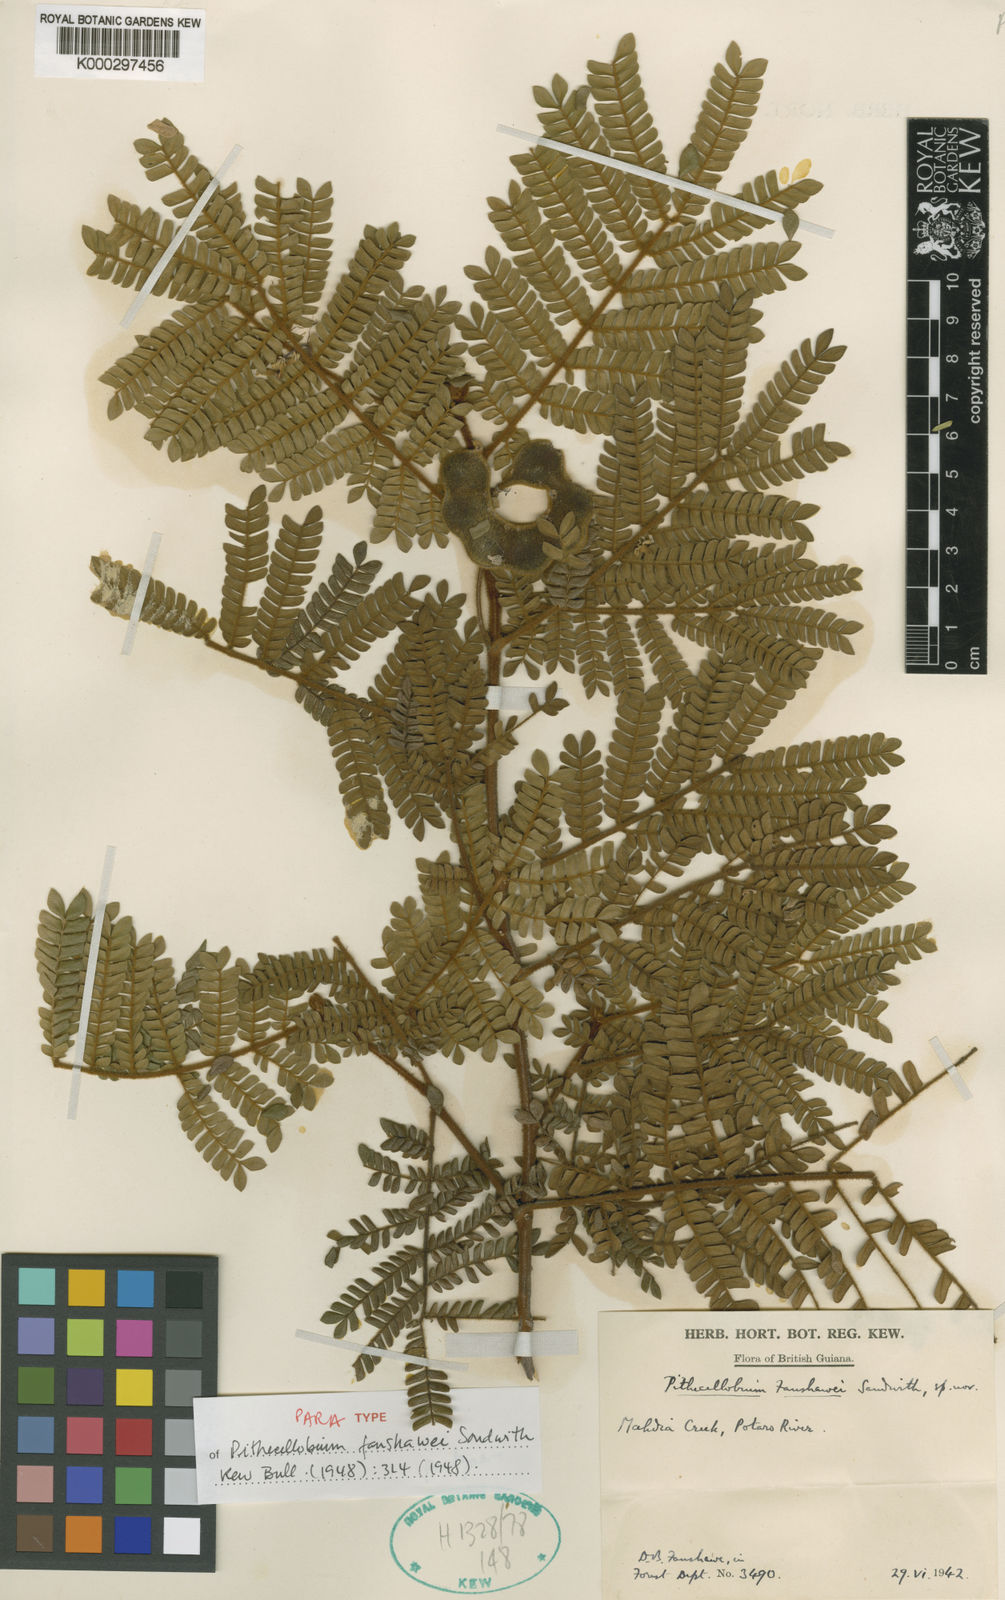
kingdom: Plantae
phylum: Tracheophyta
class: Magnoliopsida
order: Fabales
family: Fabaceae
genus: Jupunba
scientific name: Jupunba barbouriana
